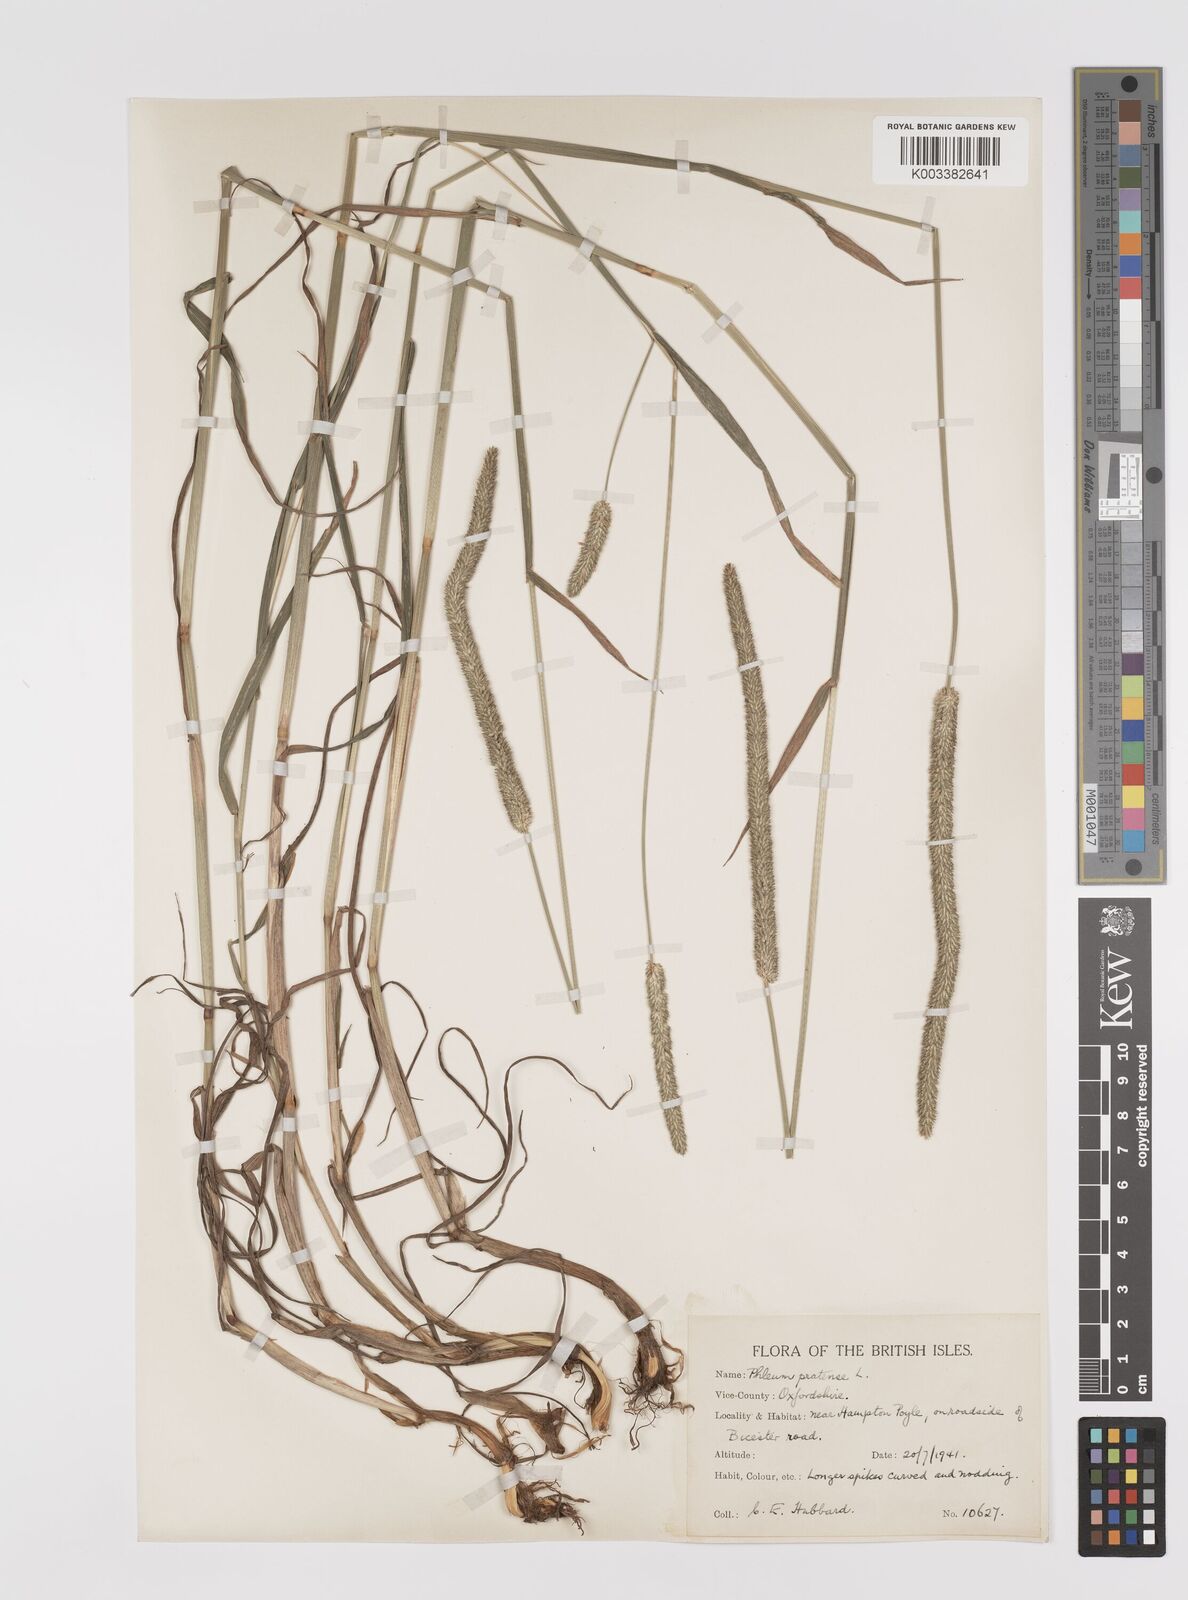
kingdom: Plantae
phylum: Tracheophyta
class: Liliopsida
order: Poales
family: Poaceae
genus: Phleum
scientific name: Phleum pratense
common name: Timothy grass
